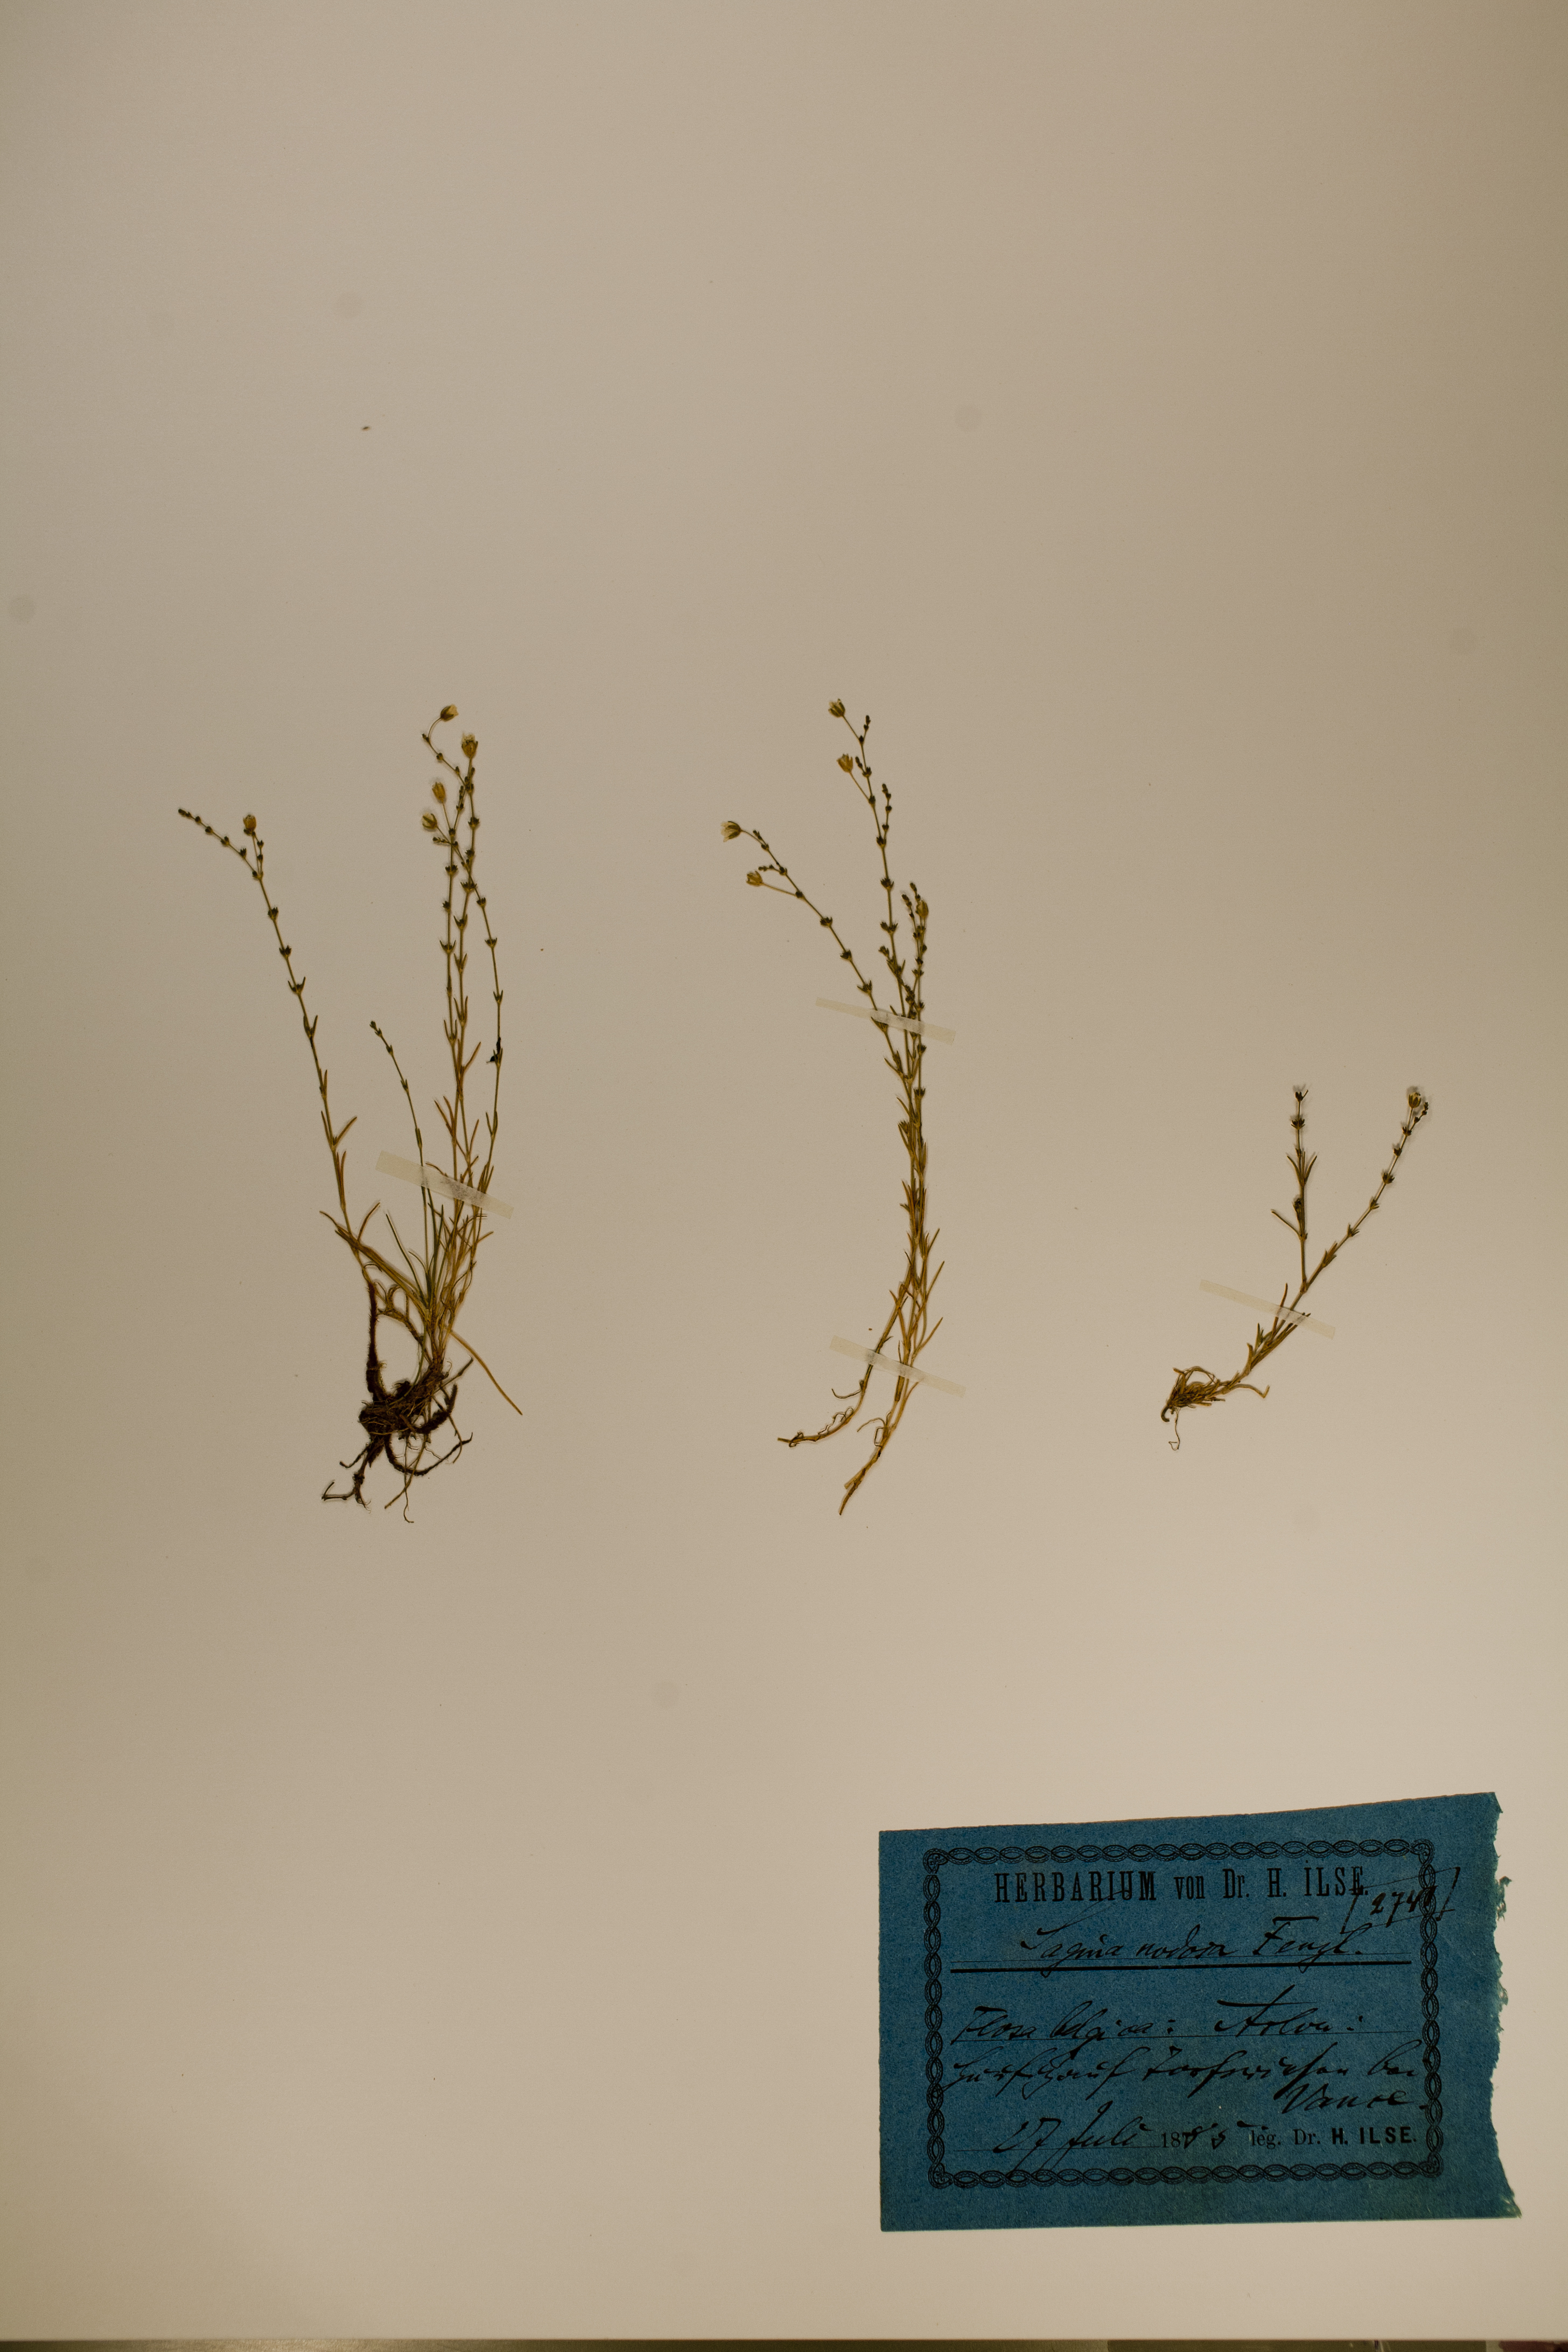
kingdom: Plantae
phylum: Tracheophyta
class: Magnoliopsida
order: Caryophyllales
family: Caryophyllaceae
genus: Sagina
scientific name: Sagina nodosa
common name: Knotted pearlwort
